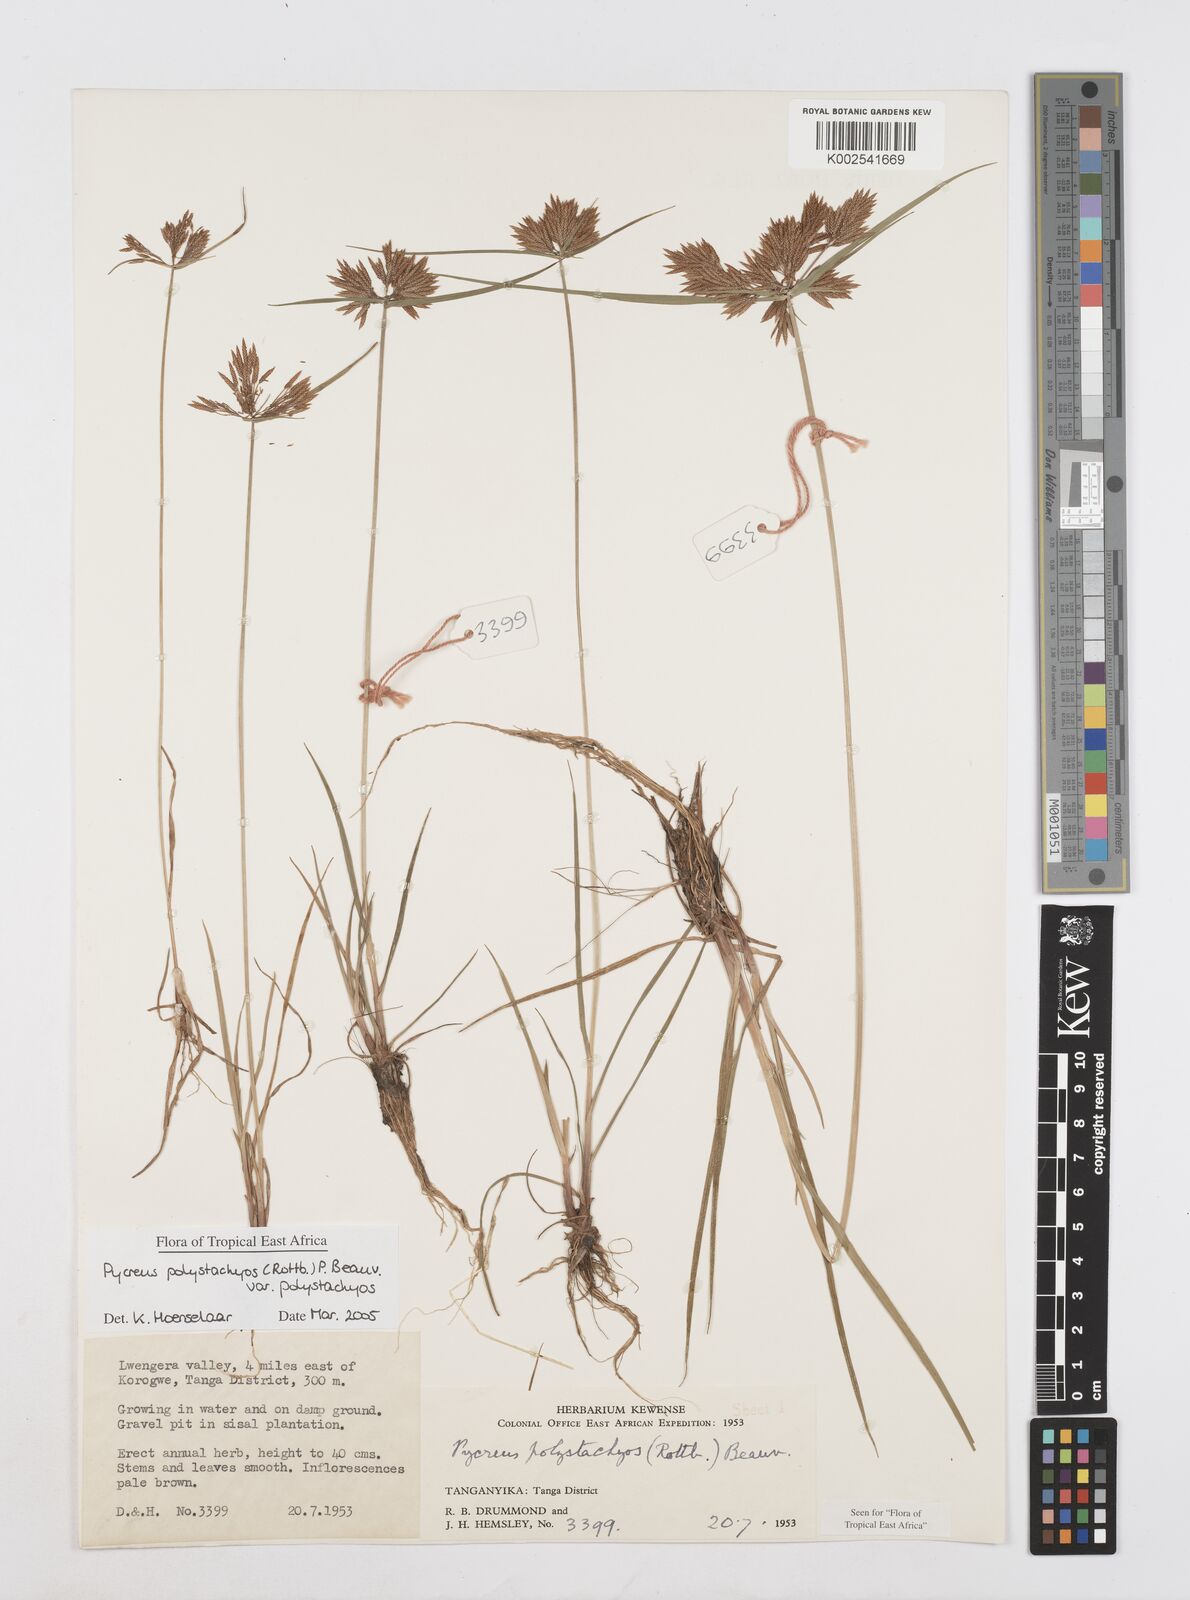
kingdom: Plantae
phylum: Tracheophyta
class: Liliopsida
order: Poales
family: Cyperaceae
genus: Cyperus
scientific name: Cyperus polystachyos
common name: Bunchy flat sedge
